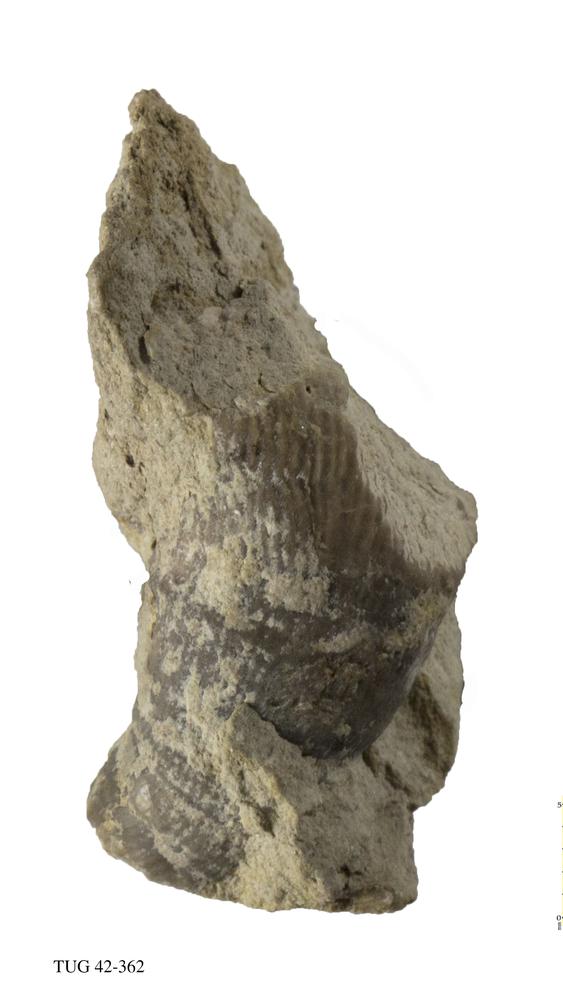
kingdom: Animalia
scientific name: Animalia
